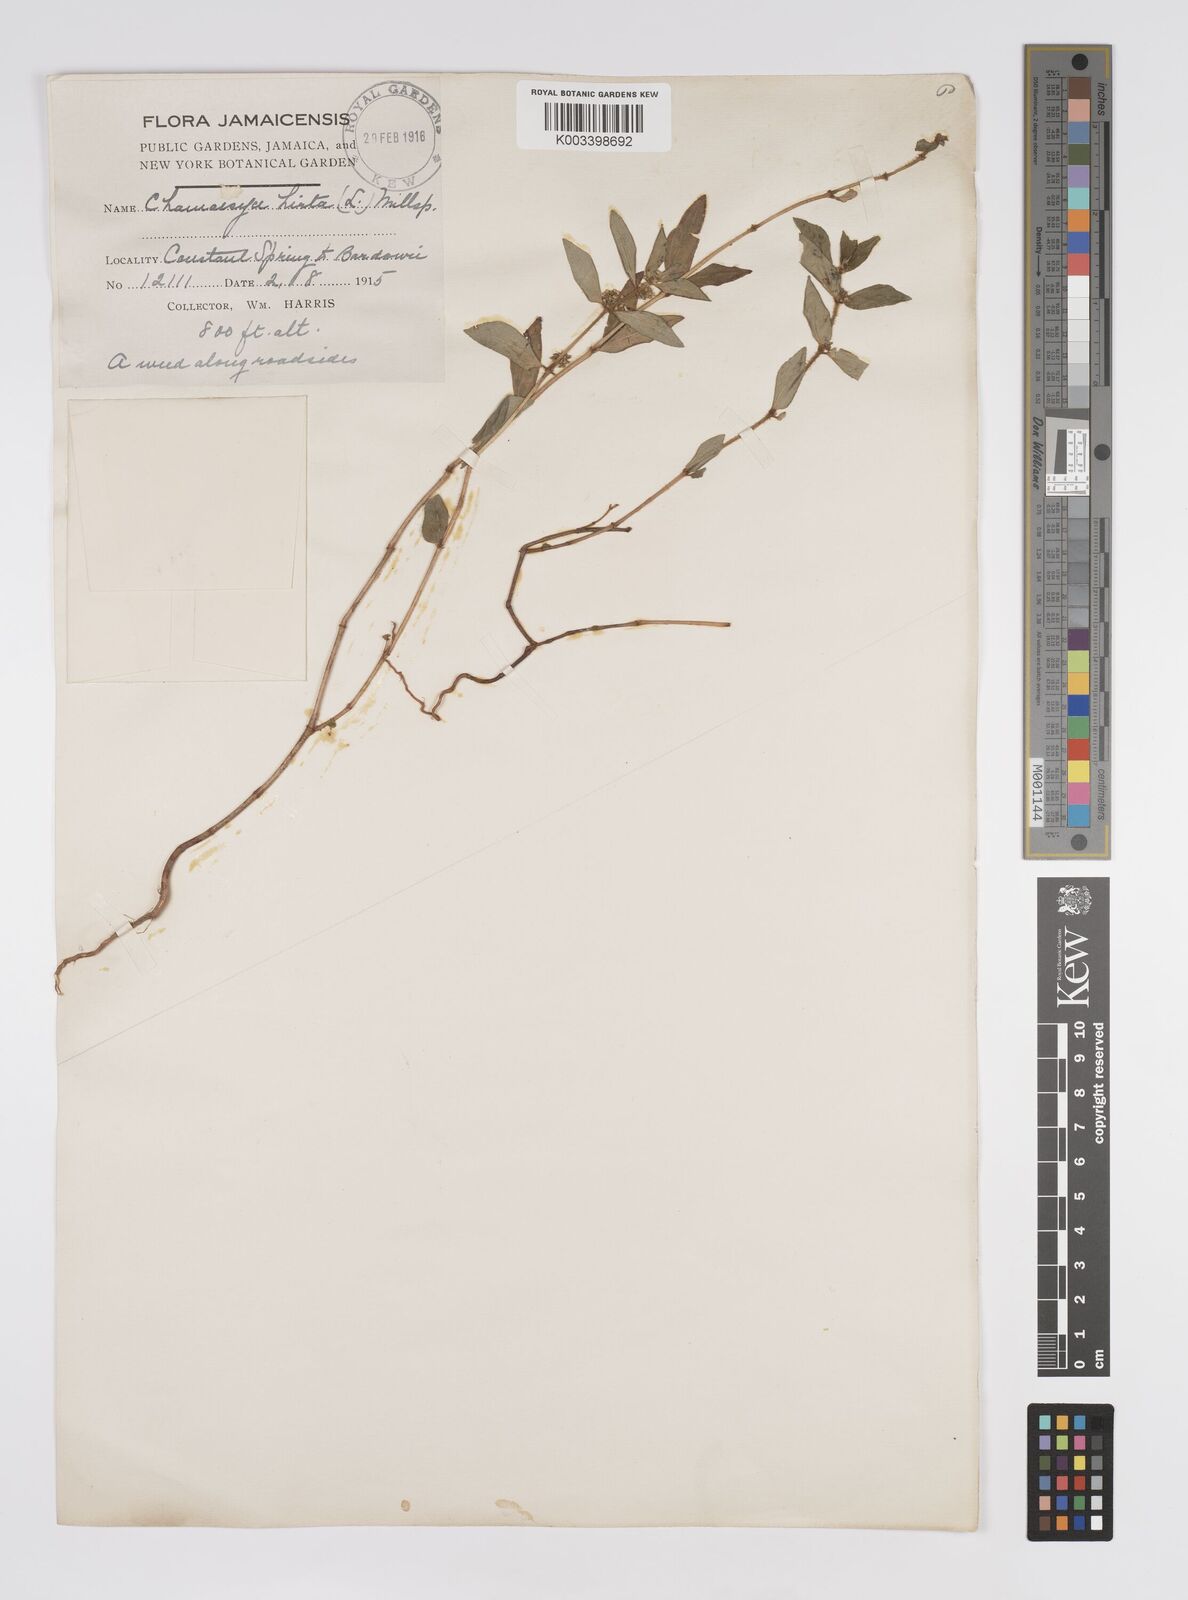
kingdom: Plantae
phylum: Tracheophyta
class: Magnoliopsida
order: Malpighiales
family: Euphorbiaceae
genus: Euphorbia
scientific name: Euphorbia hirta
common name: Pillpod sandmat
